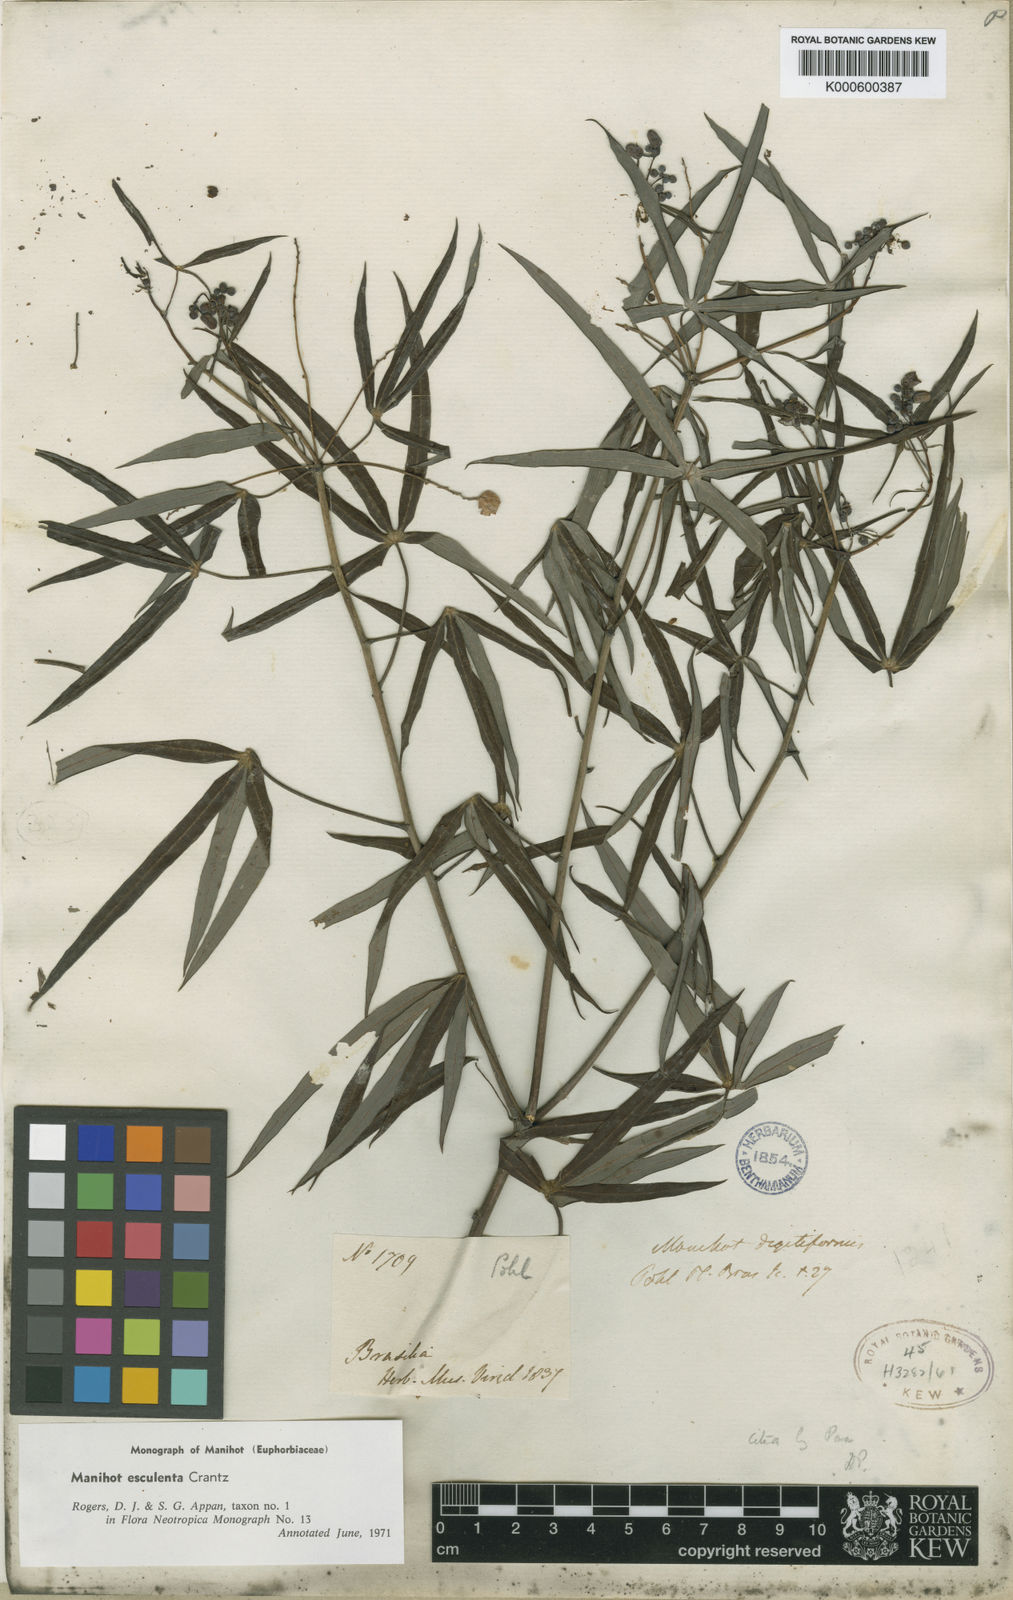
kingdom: Plantae
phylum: Tracheophyta
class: Magnoliopsida
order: Malpighiales
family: Euphorbiaceae
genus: Manihot
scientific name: Manihot esculenta
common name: Cassava
